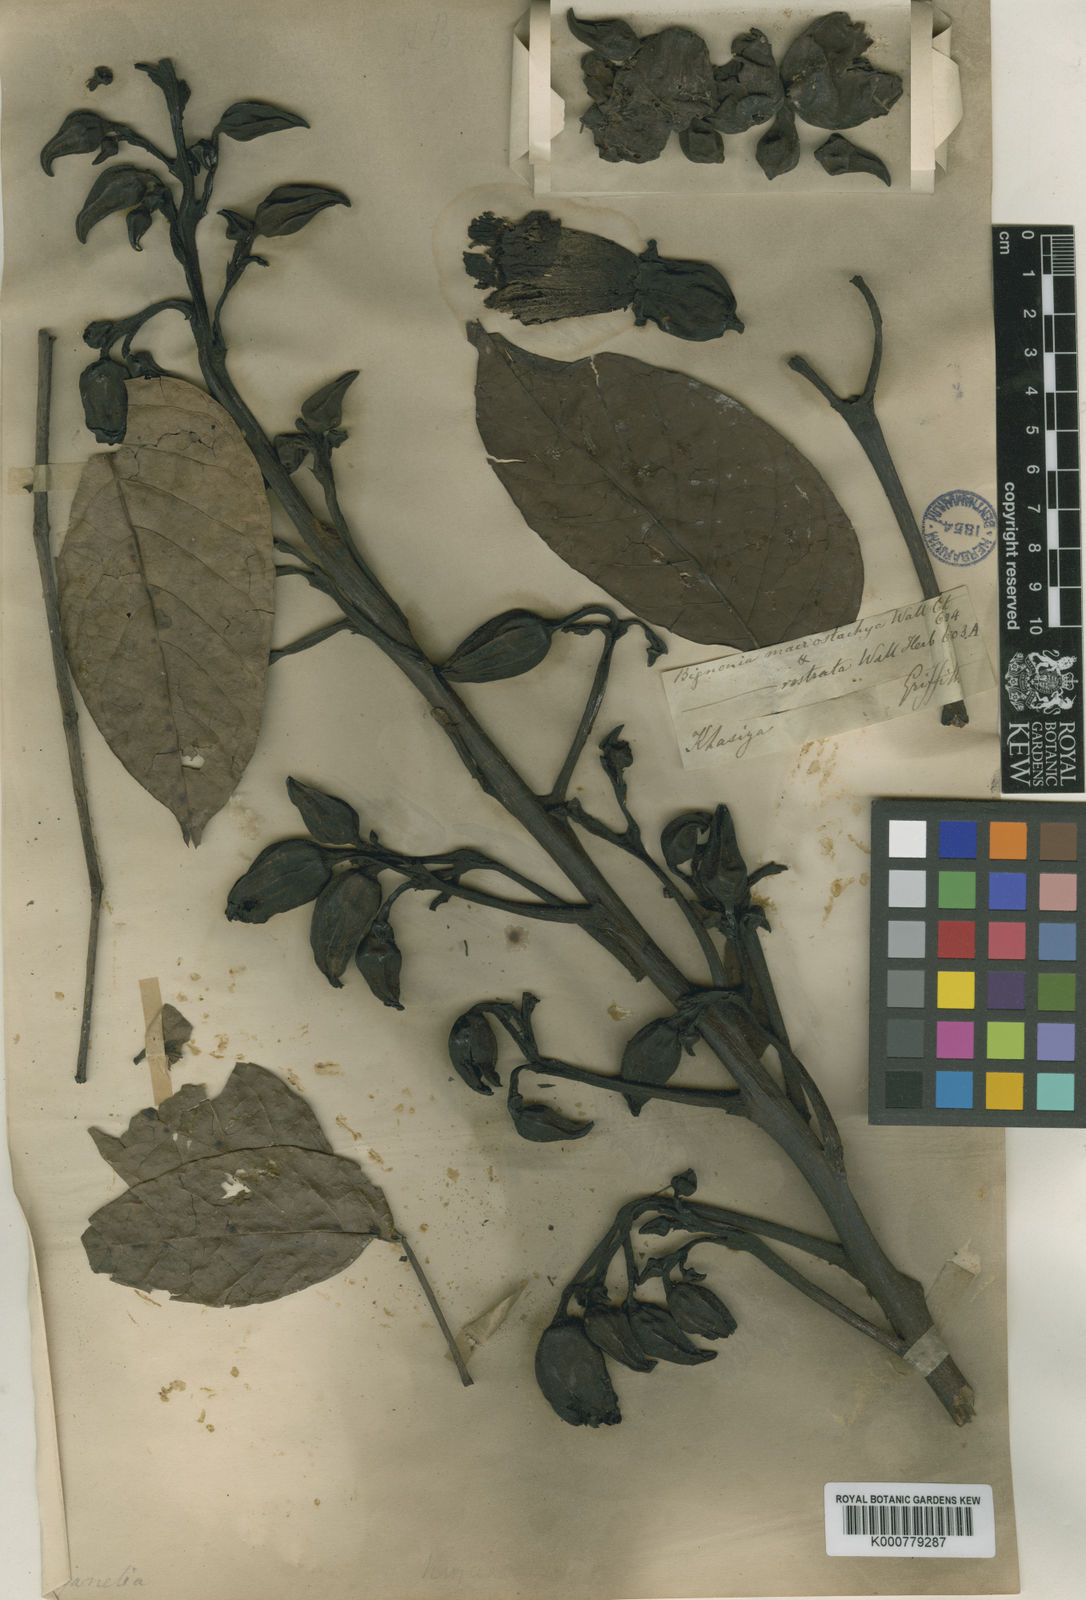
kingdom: Plantae
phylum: Tracheophyta
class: Magnoliopsida
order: Lamiales
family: Bignoniaceae
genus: Pajanelia
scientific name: Pajanelia longifolia
